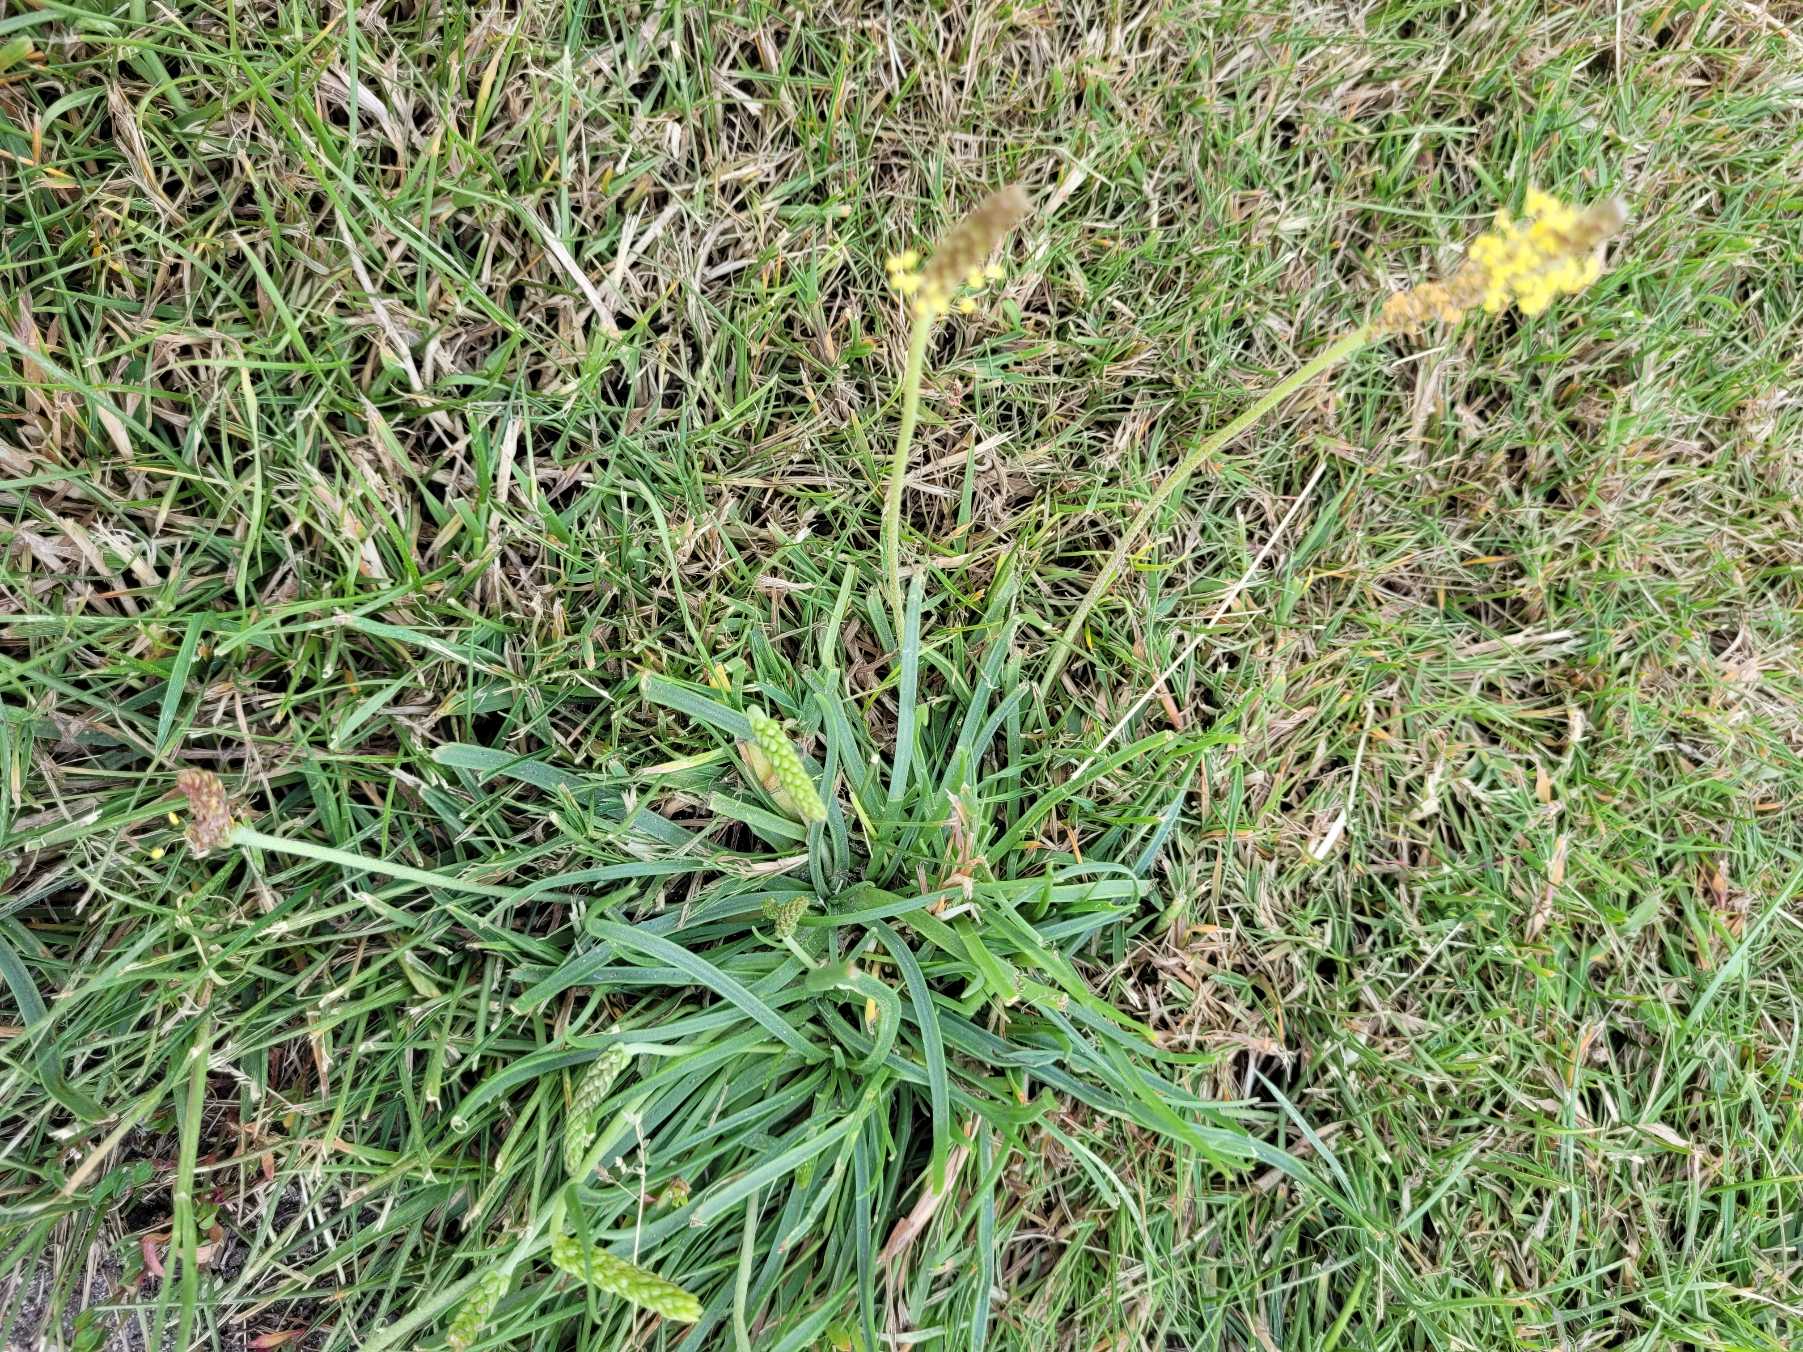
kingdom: Plantae
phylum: Tracheophyta
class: Magnoliopsida
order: Lamiales
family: Plantaginaceae
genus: Plantago
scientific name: Plantago maritima
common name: Strand-vejbred
